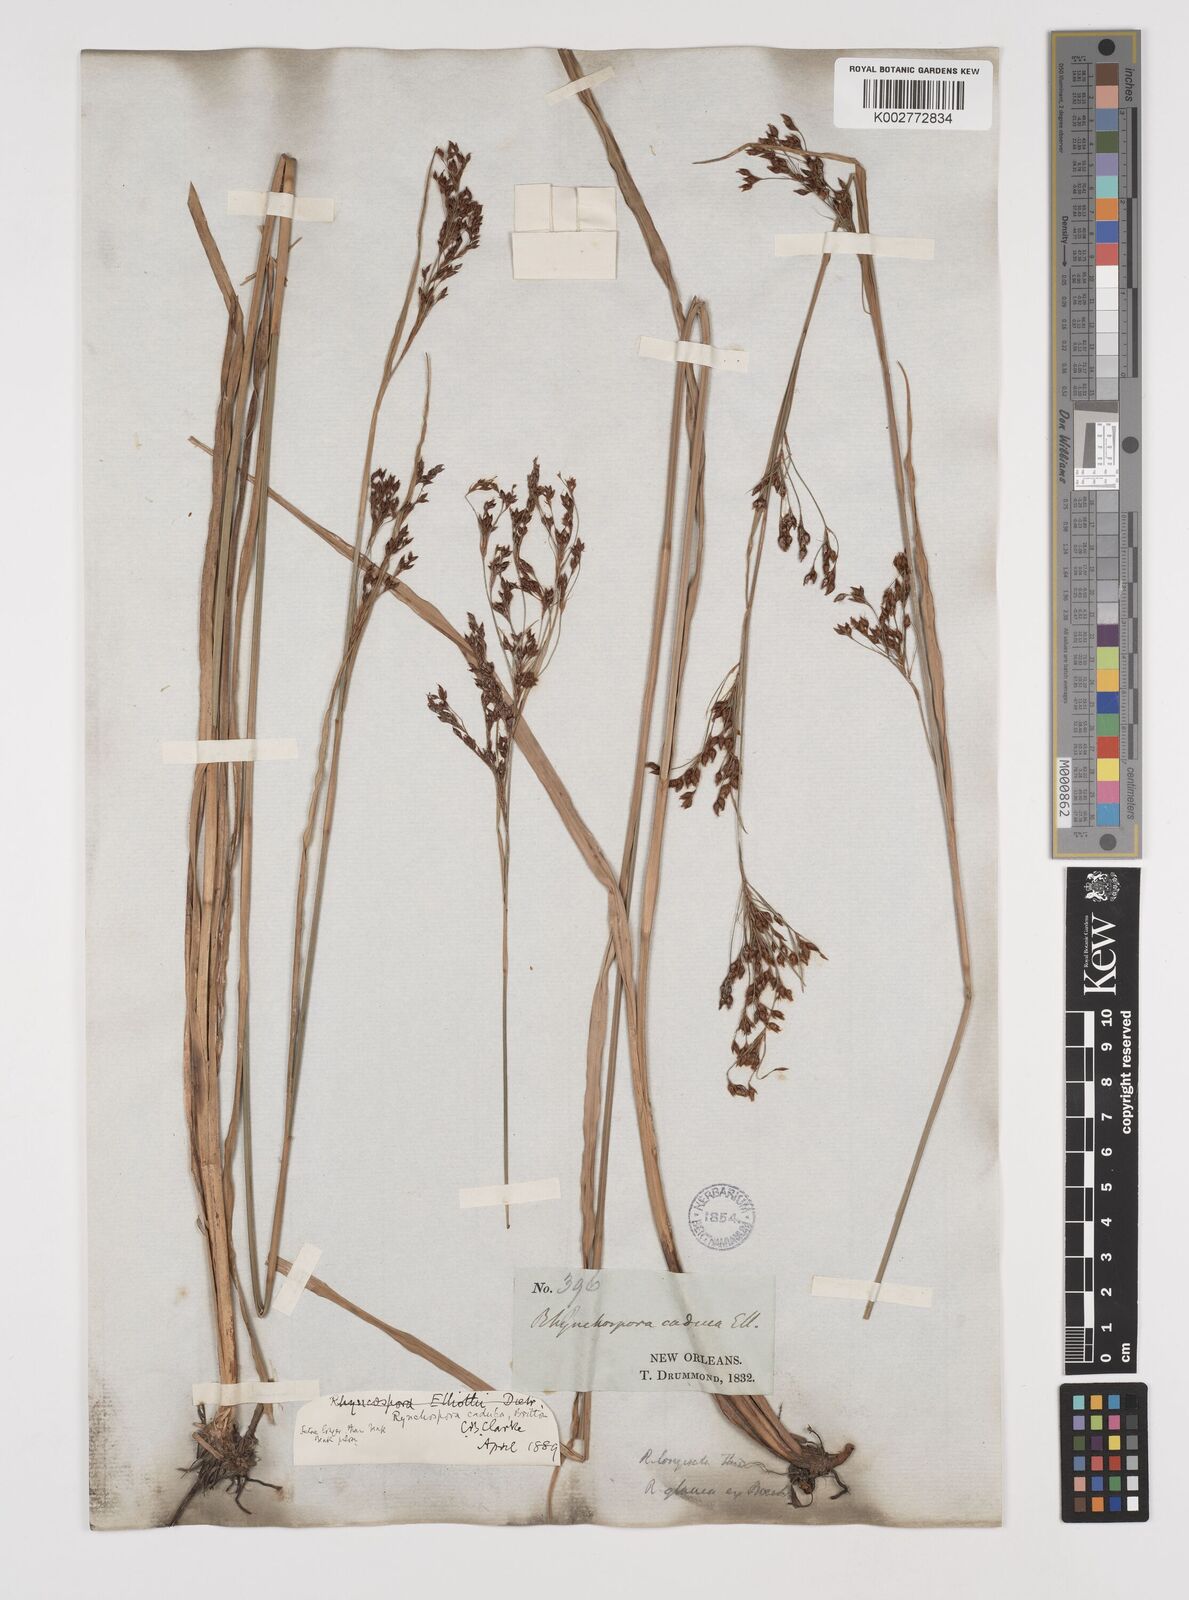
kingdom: Plantae
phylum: Tracheophyta
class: Liliopsida
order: Poales
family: Cyperaceae
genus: Rhynchospora
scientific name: Rhynchospora caduca
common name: Anglestem beaksedge
